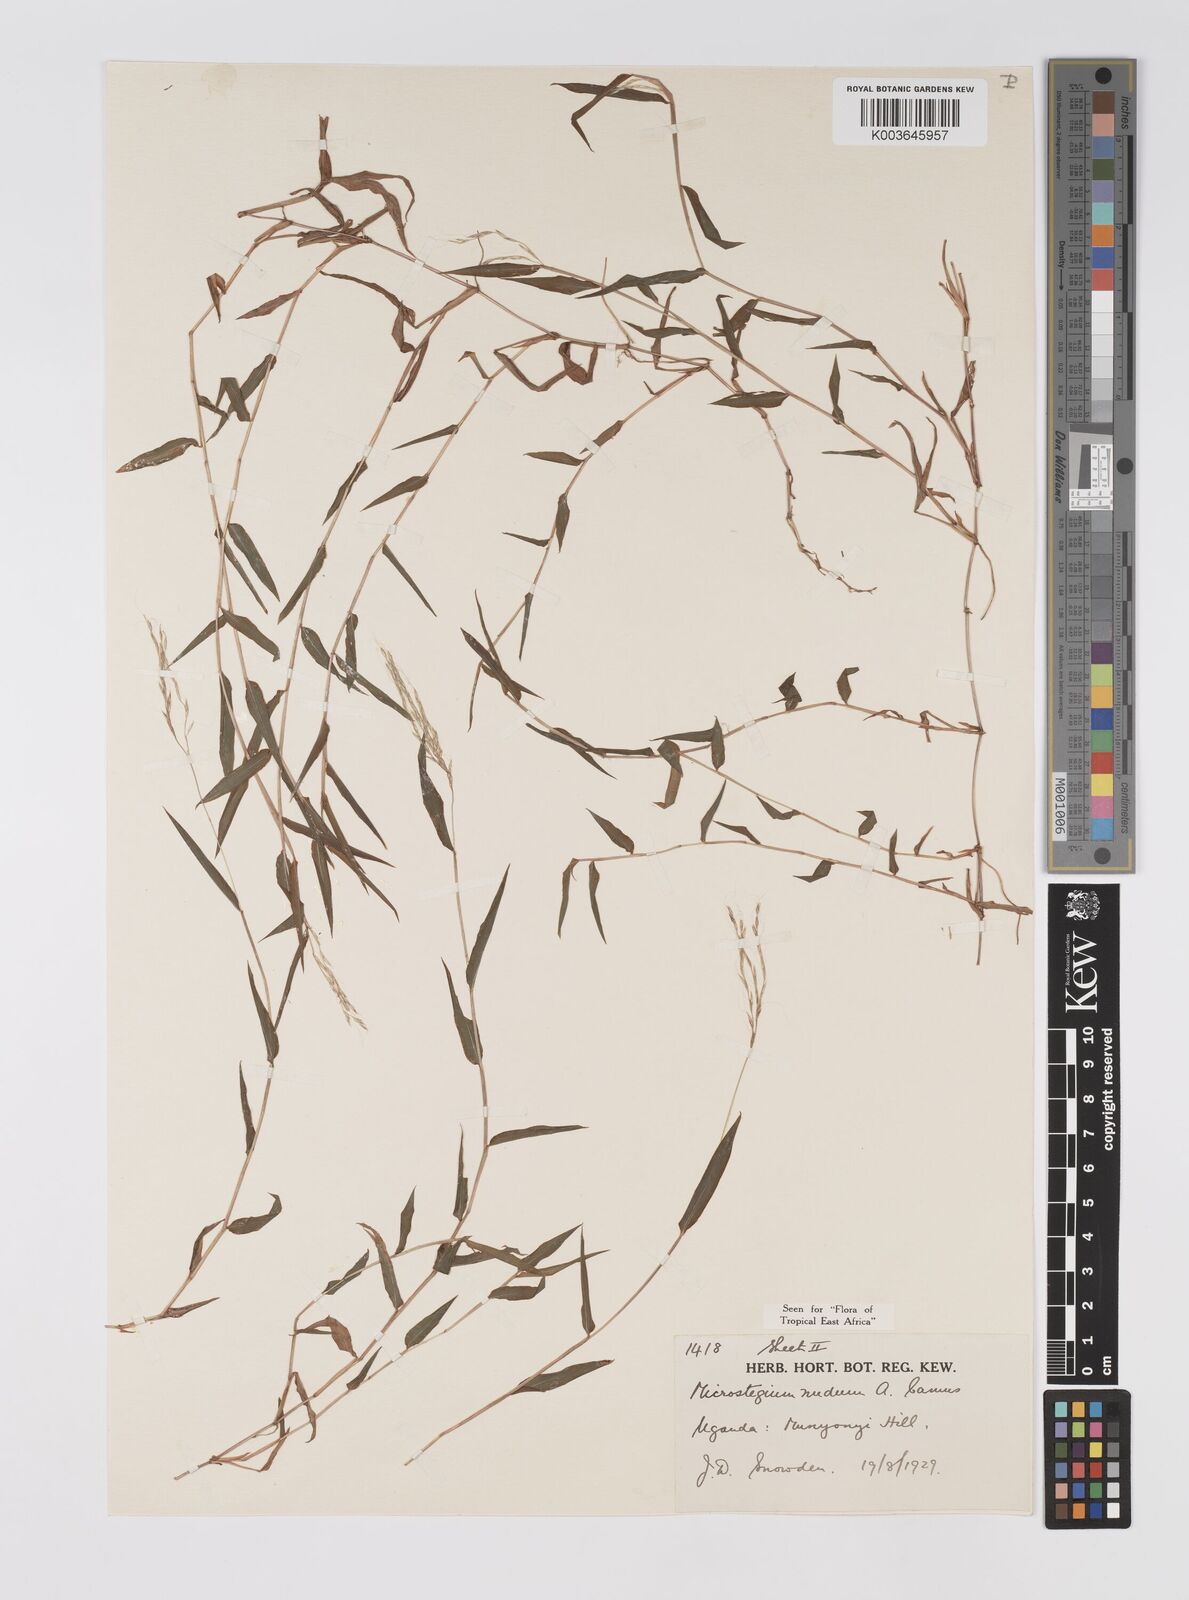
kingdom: Plantae
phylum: Tracheophyta
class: Liliopsida
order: Poales
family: Poaceae
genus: Microstegium
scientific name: Microstegium nudum
